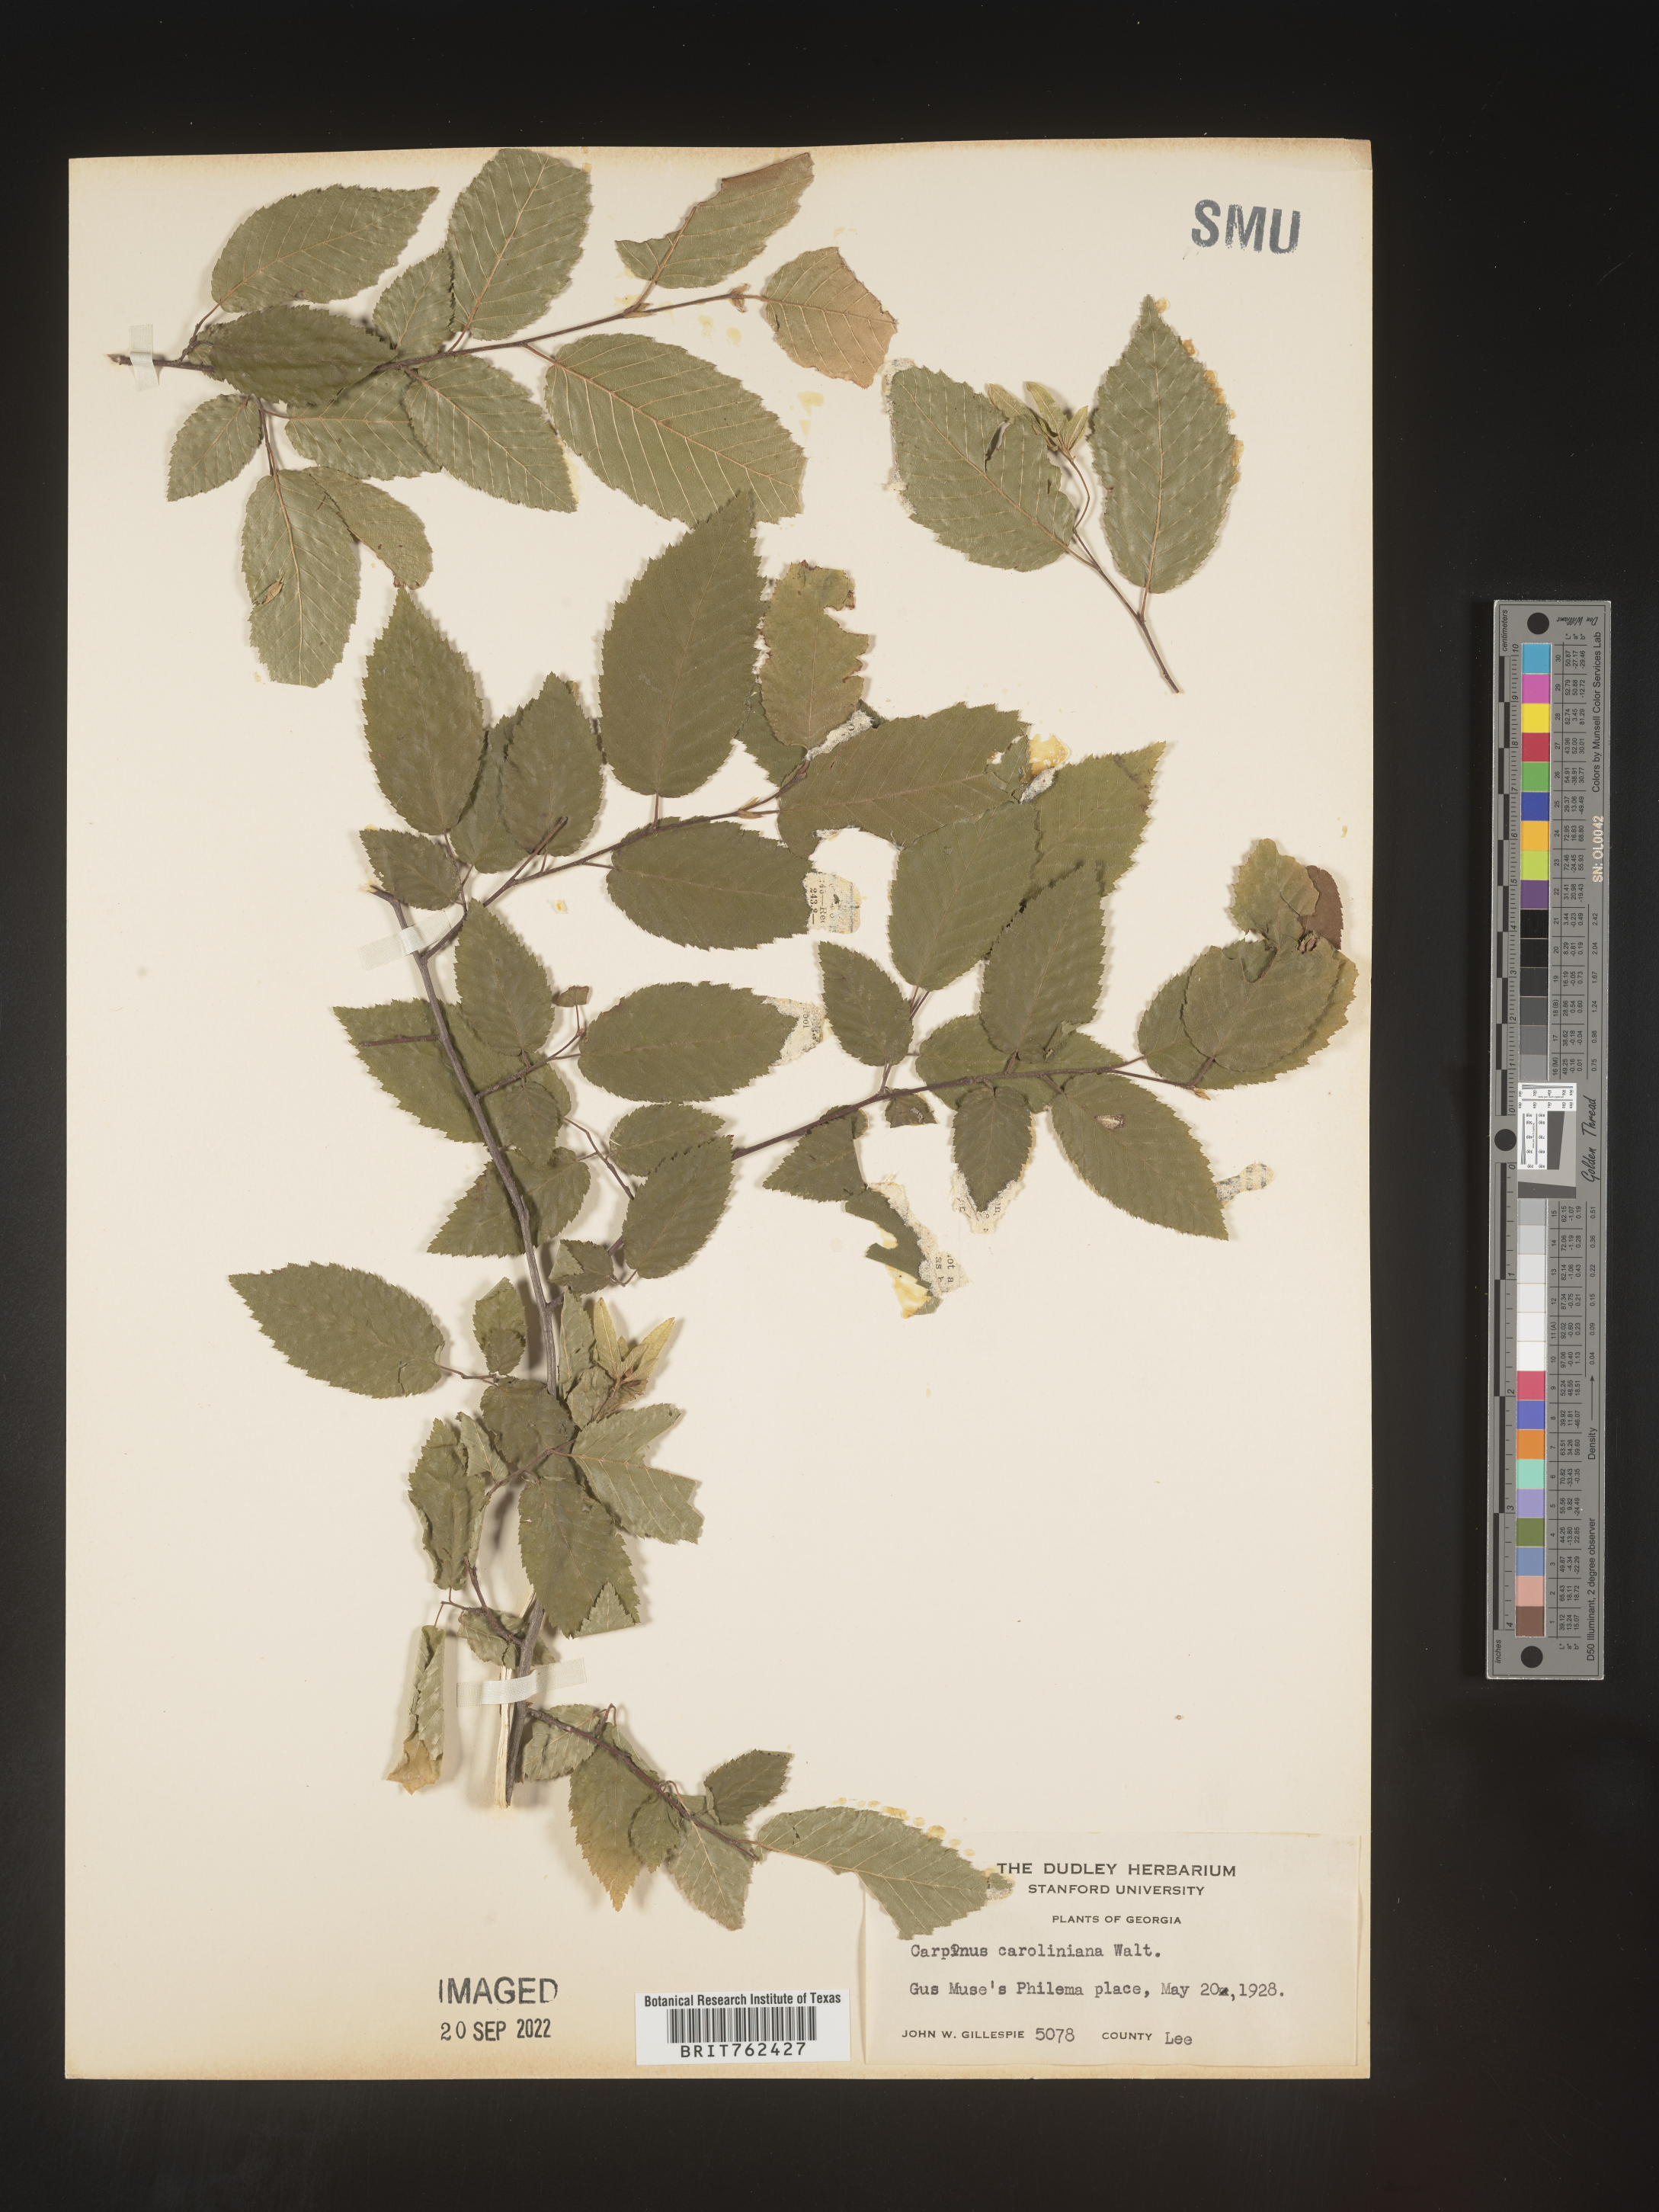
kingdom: Plantae
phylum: Tracheophyta
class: Magnoliopsida
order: Fagales
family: Betulaceae
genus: Carpinus
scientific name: Carpinus caroliniana
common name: American hornbeam
